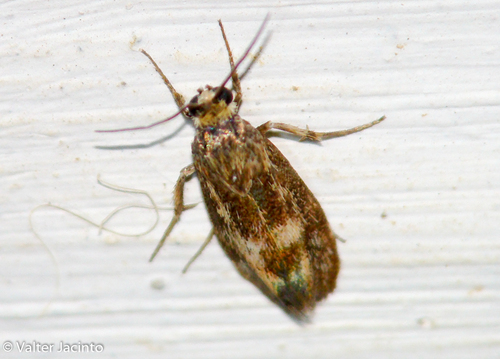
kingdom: Animalia
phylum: Arthropoda
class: Insecta
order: Lepidoptera
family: Brachodidae
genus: Atychia
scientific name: Atychia Brachodes funebris
